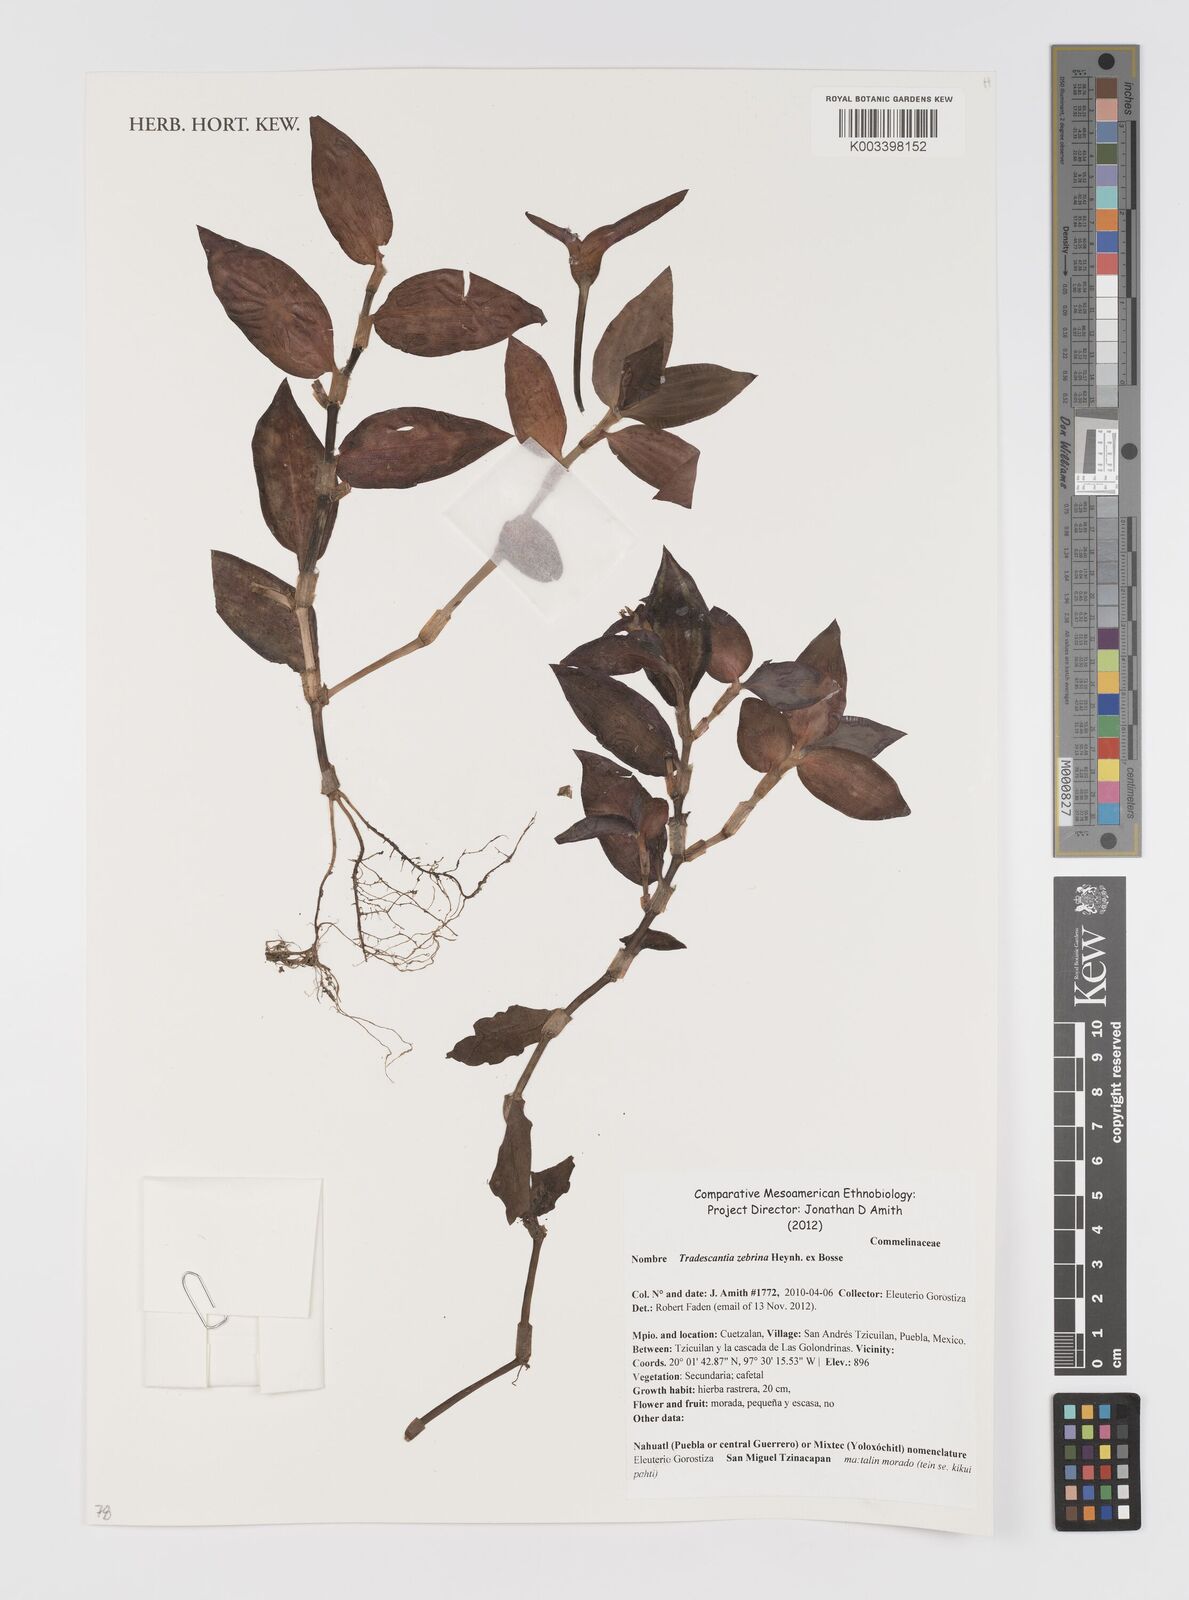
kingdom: Plantae
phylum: Tracheophyta
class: Liliopsida
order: Commelinales
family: Commelinaceae
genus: Tradescantia
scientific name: Tradescantia zebrina
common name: Inchplant
